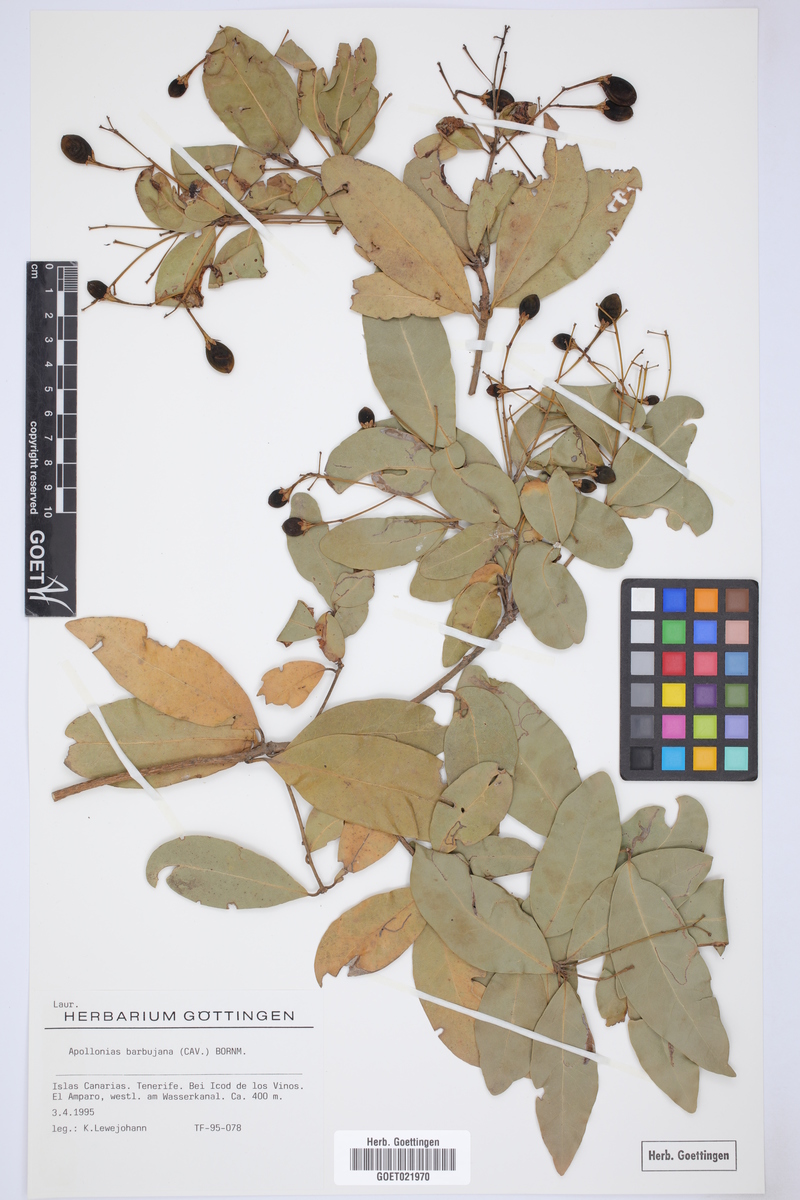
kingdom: Plantae
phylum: Tracheophyta
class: Magnoliopsida
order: Laurales
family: Lauraceae
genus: Apollonias
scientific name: Apollonias barbujana
